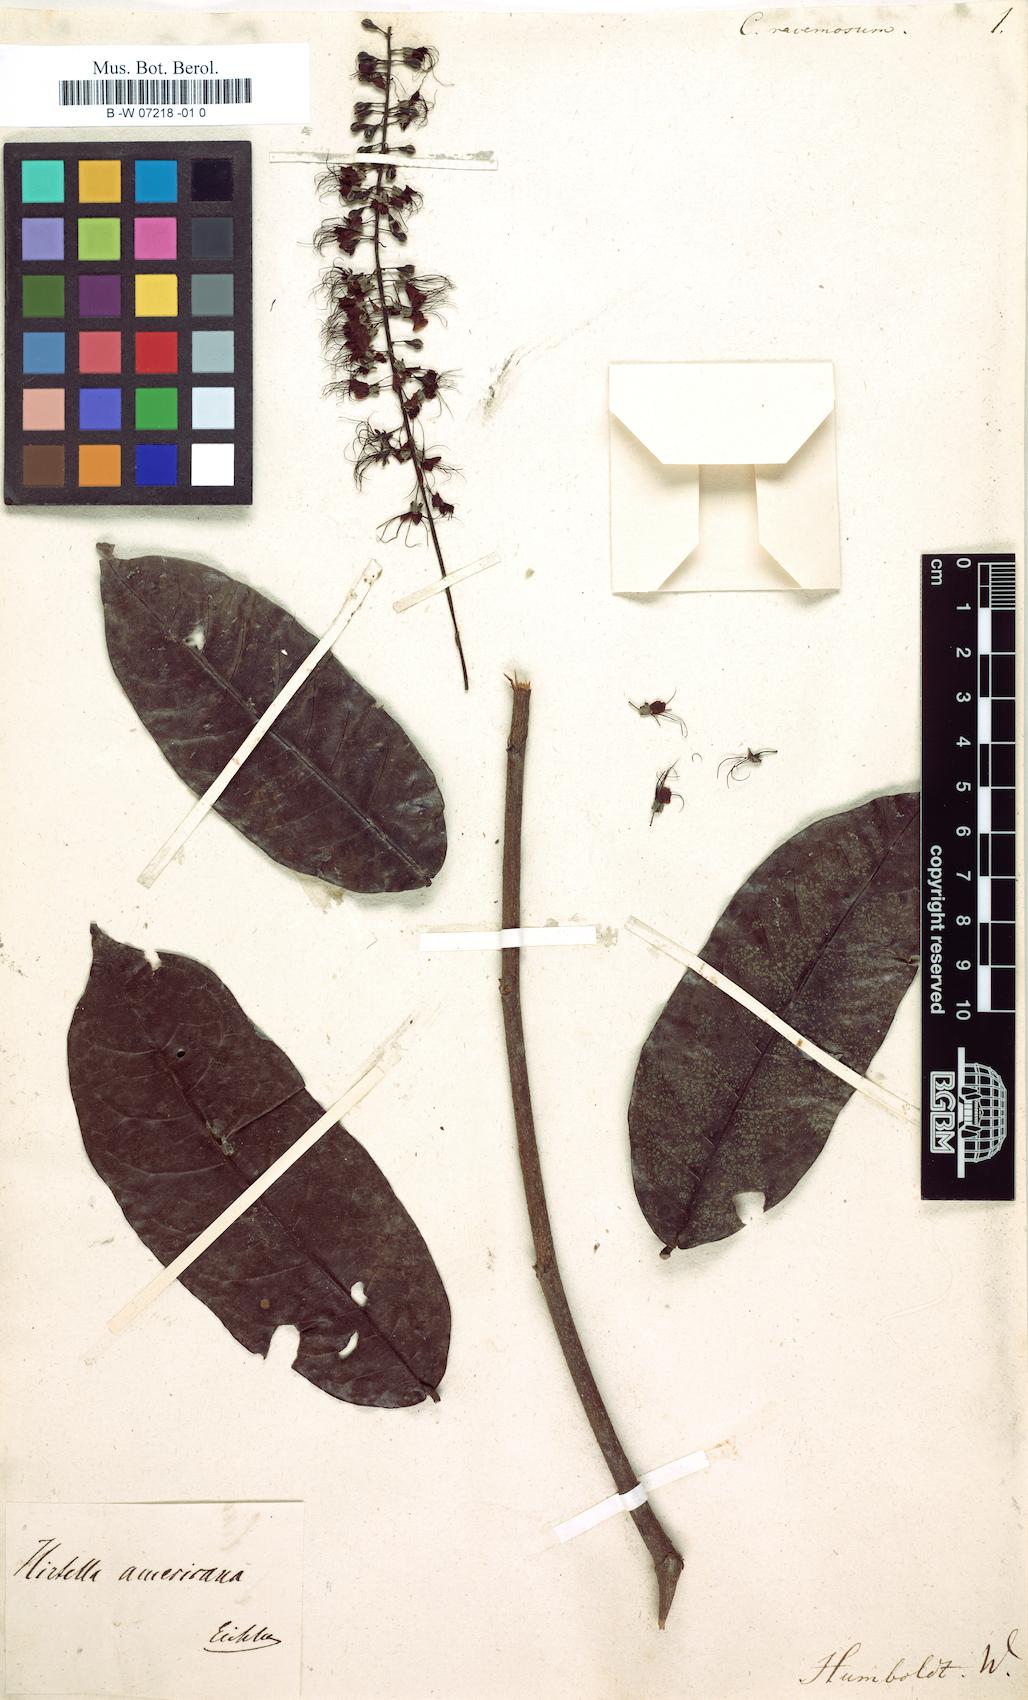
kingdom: Plantae
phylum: Tracheophyta
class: Magnoliopsida
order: Myrtales
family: Combretaceae
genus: Combretum
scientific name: Combretum racemosum
